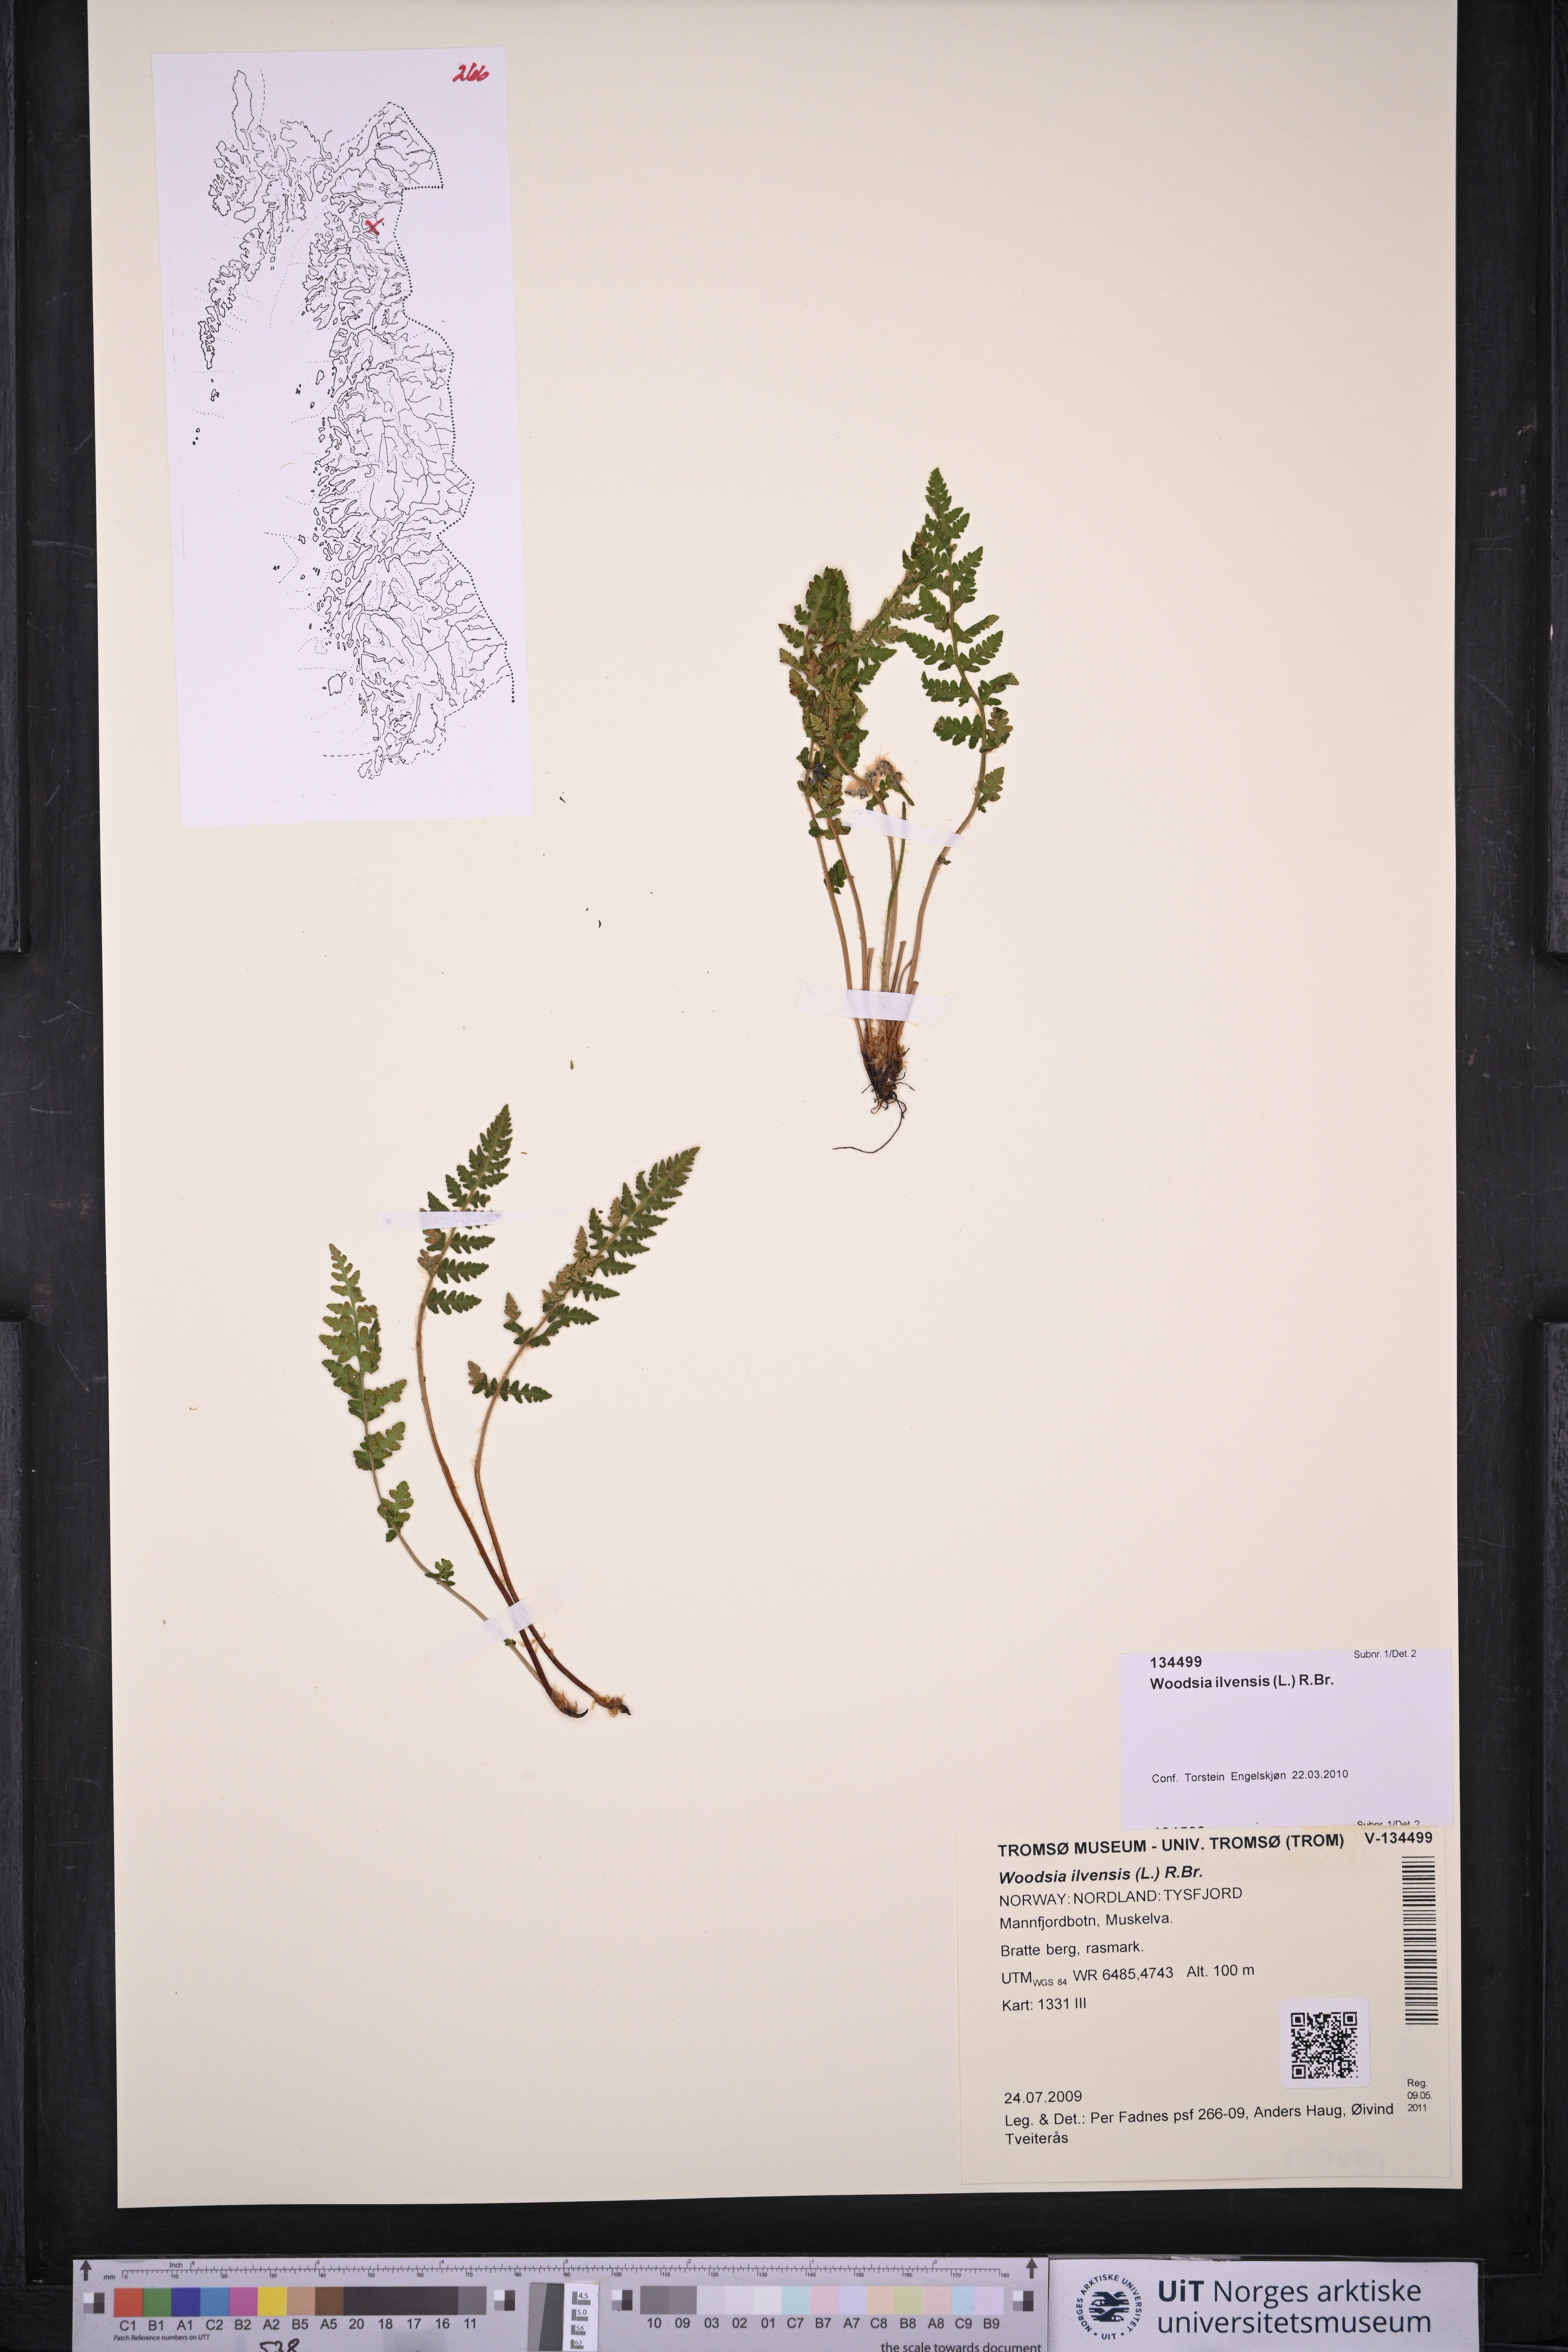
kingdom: Plantae
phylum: Tracheophyta
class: Polypodiopsida
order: Polypodiales
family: Woodsiaceae
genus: Woodsia
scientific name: Woodsia ilvensis
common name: Fragrant woodsia
